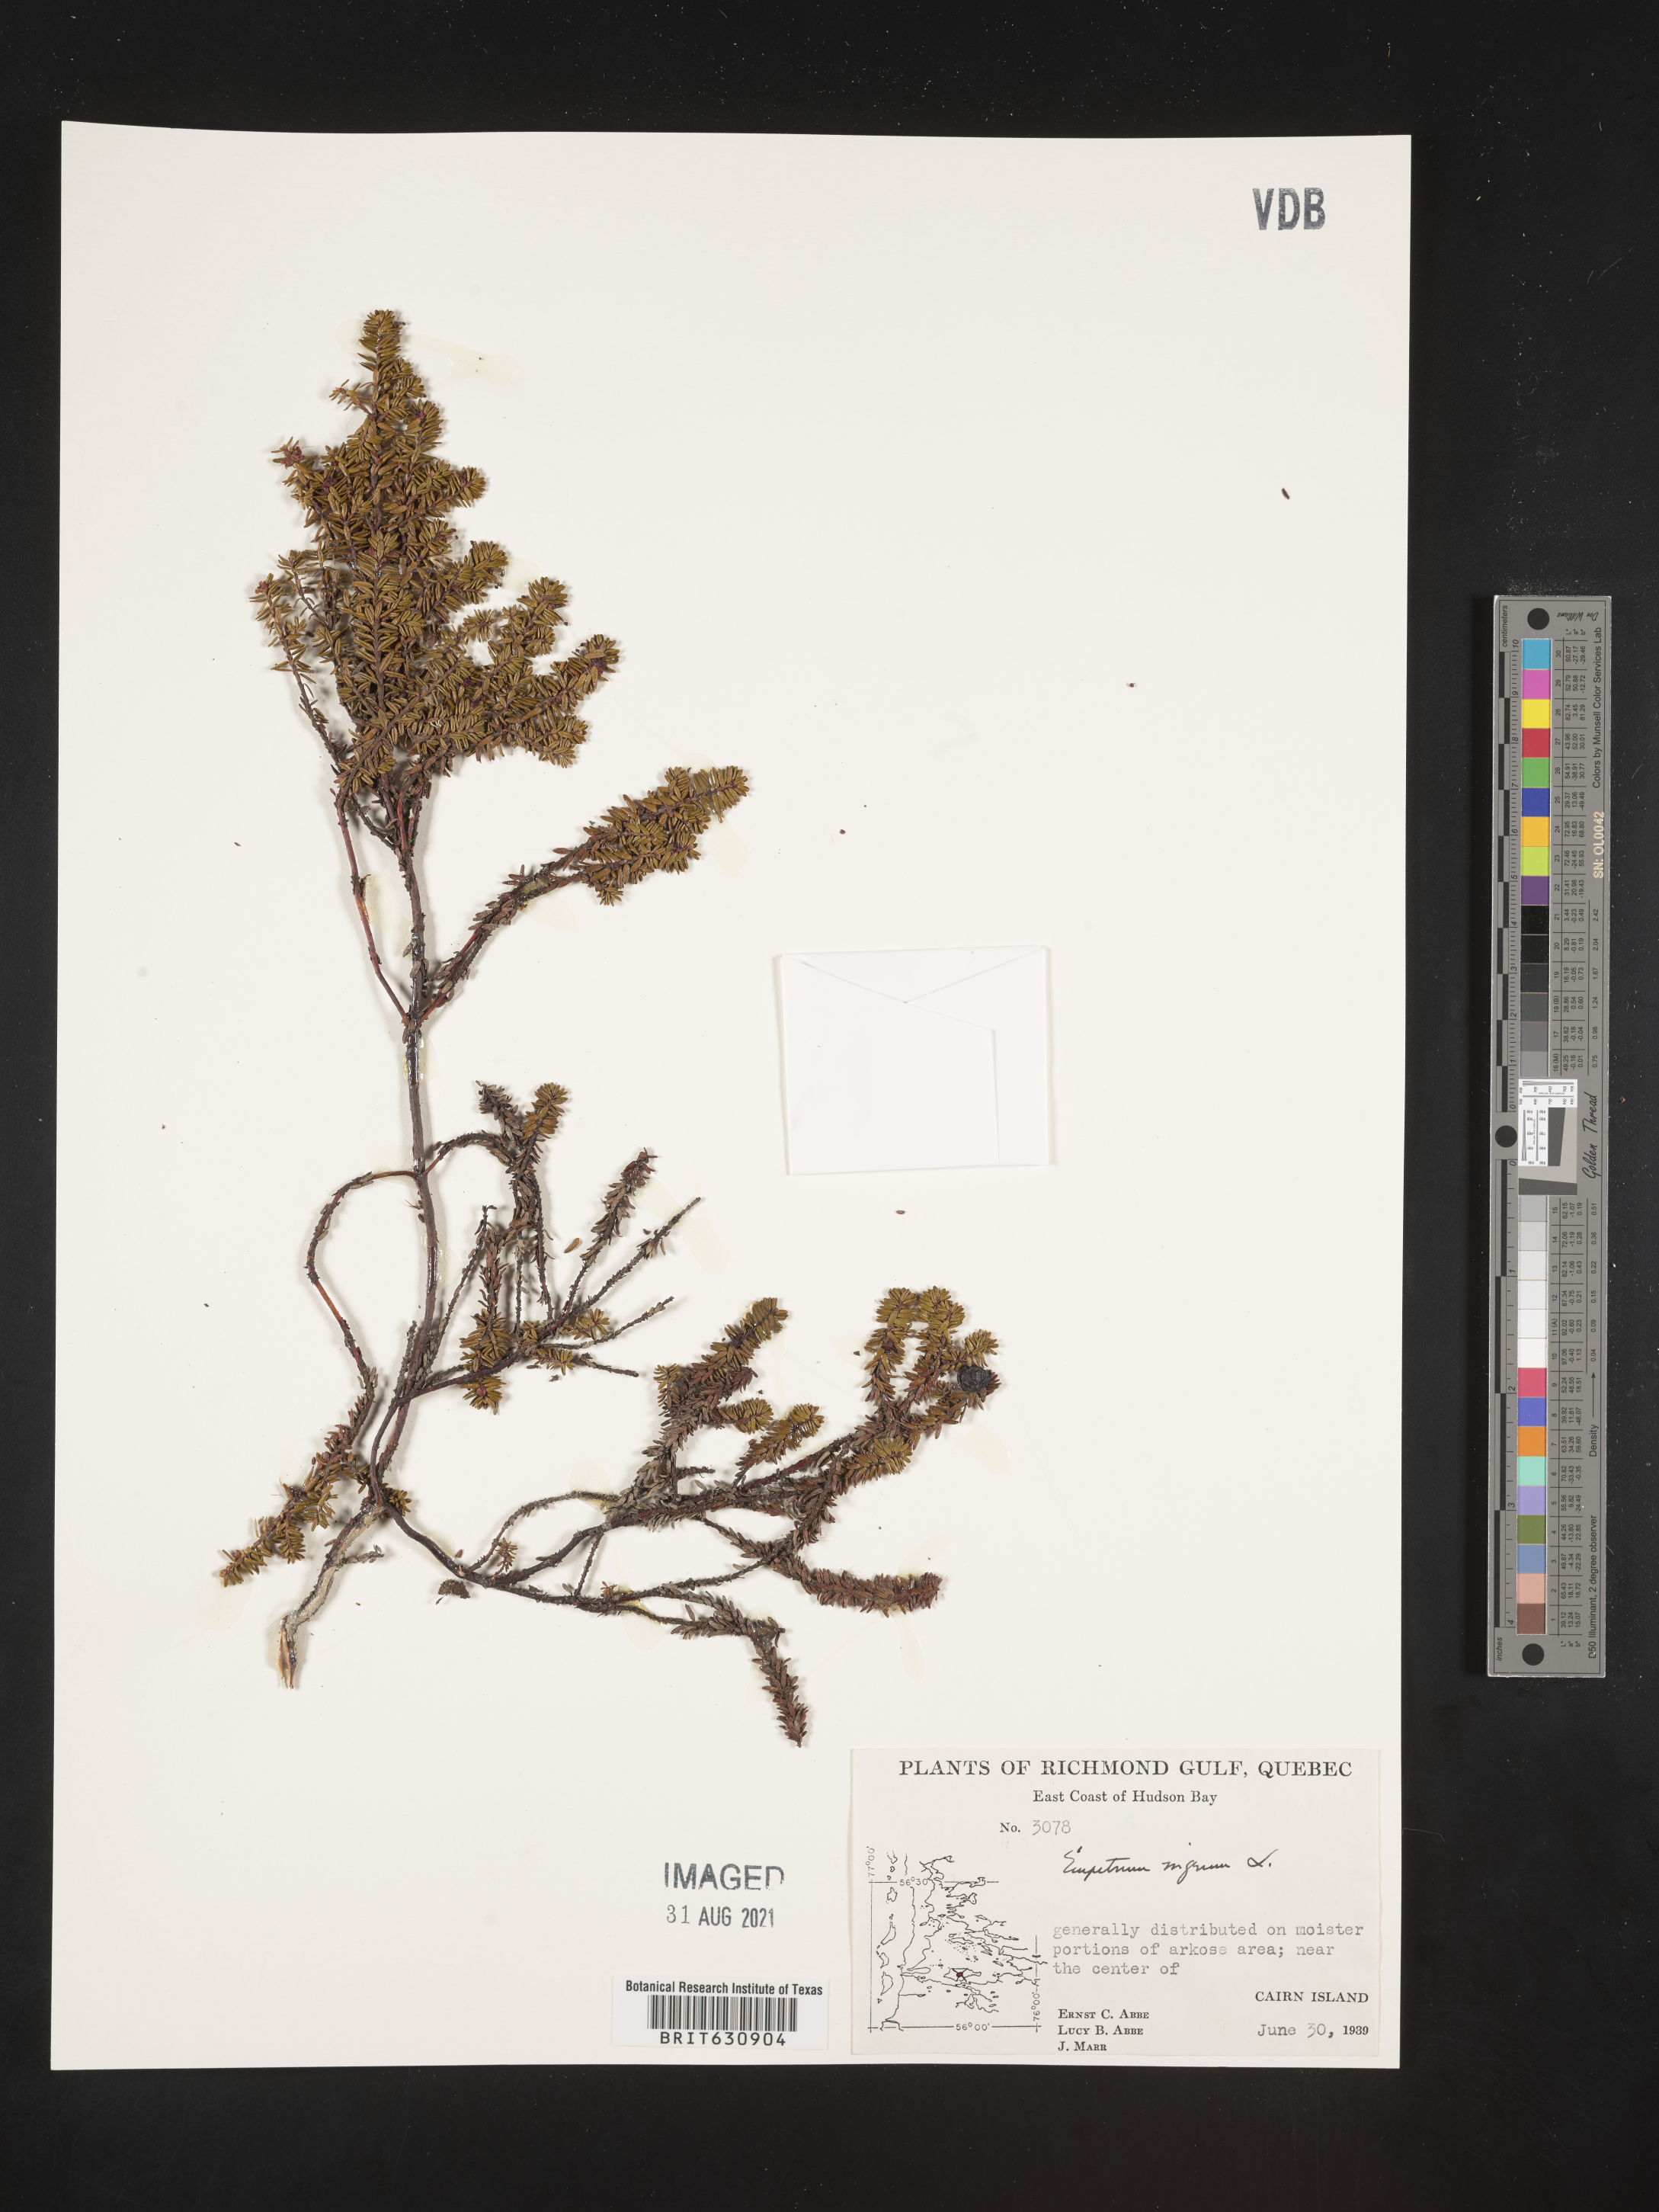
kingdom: Plantae
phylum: Tracheophyta
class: Magnoliopsida
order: Ericales
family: Ericaceae
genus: Empetrum
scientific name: Empetrum
